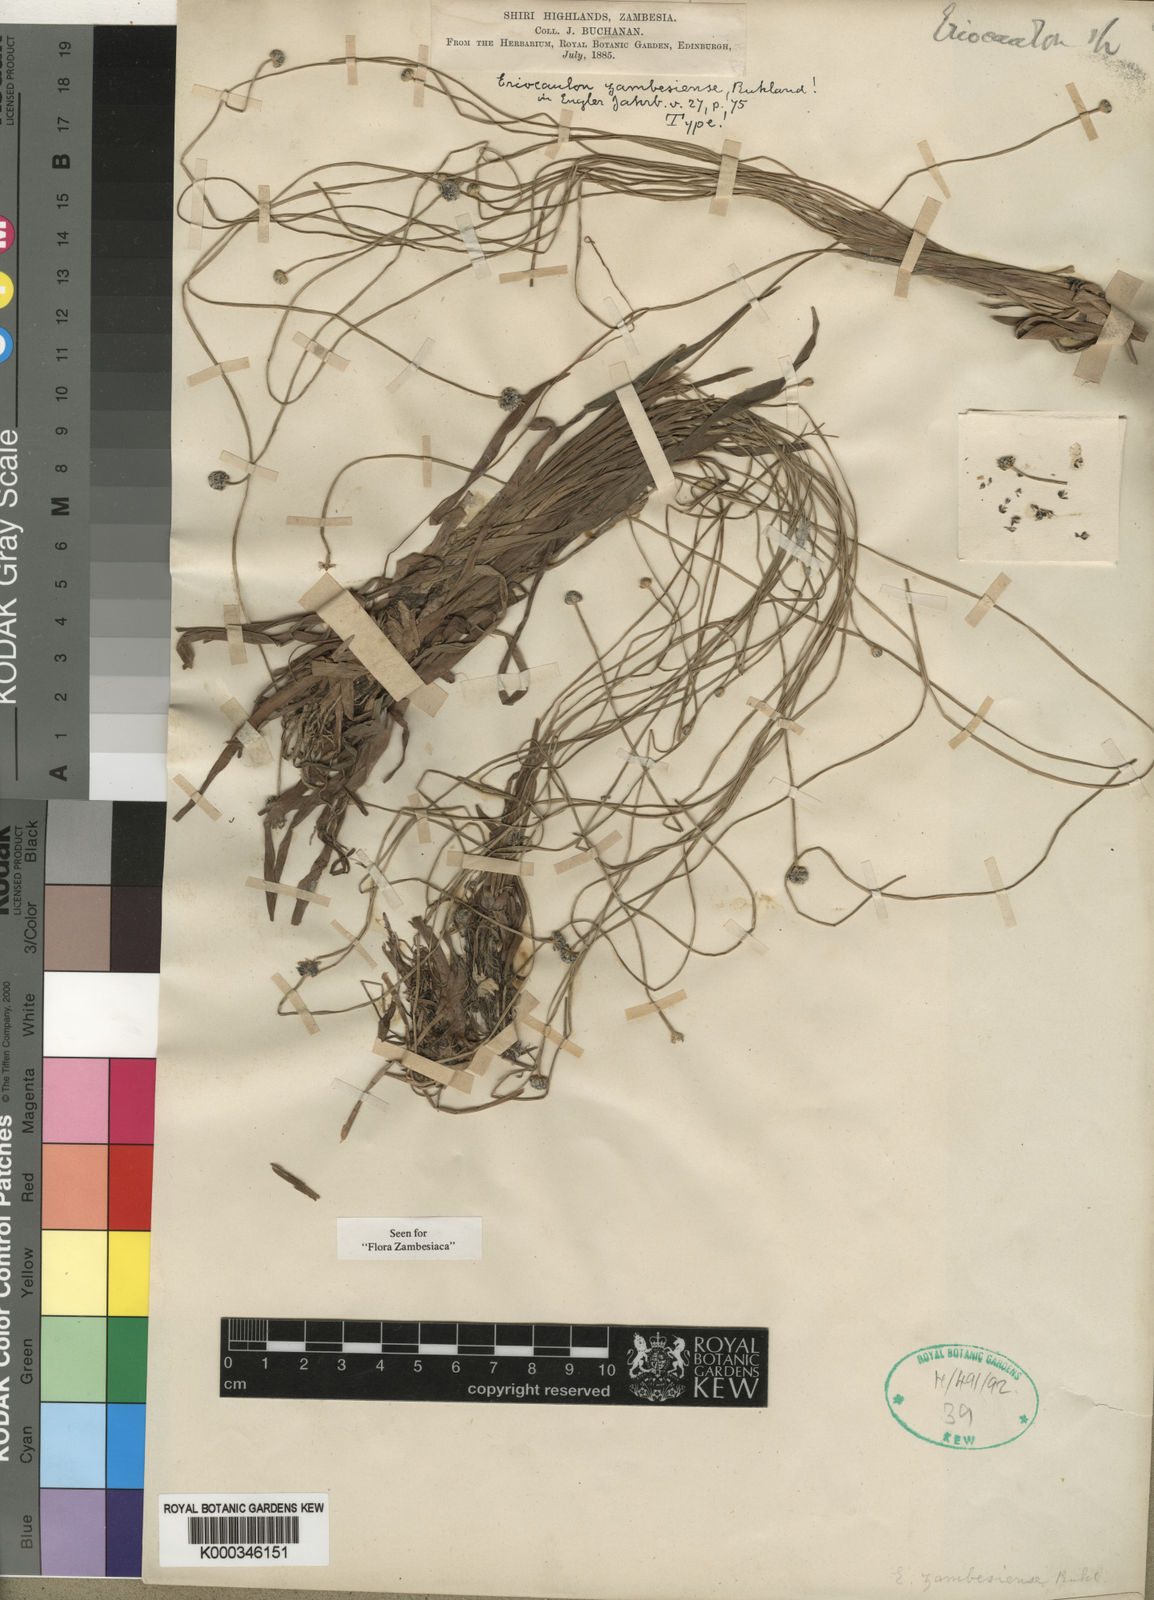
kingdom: Plantae
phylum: Tracheophyta
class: Liliopsida
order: Poales
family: Eriocaulaceae
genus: Eriocaulon
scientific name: Eriocaulon zambesiense
